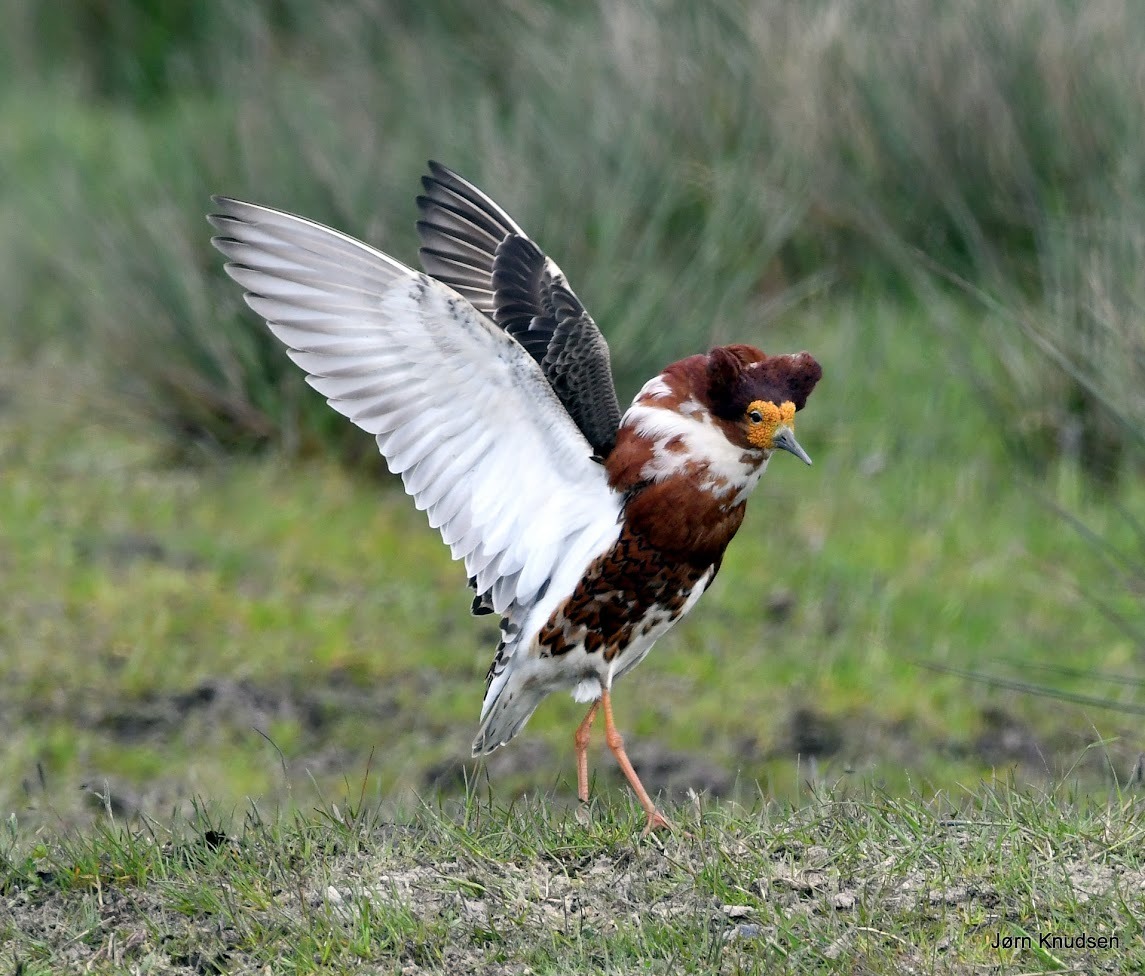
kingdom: Animalia
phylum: Chordata
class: Aves
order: Charadriiformes
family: Scolopacidae
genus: Calidris
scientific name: Calidris pugnax
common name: Brushane
